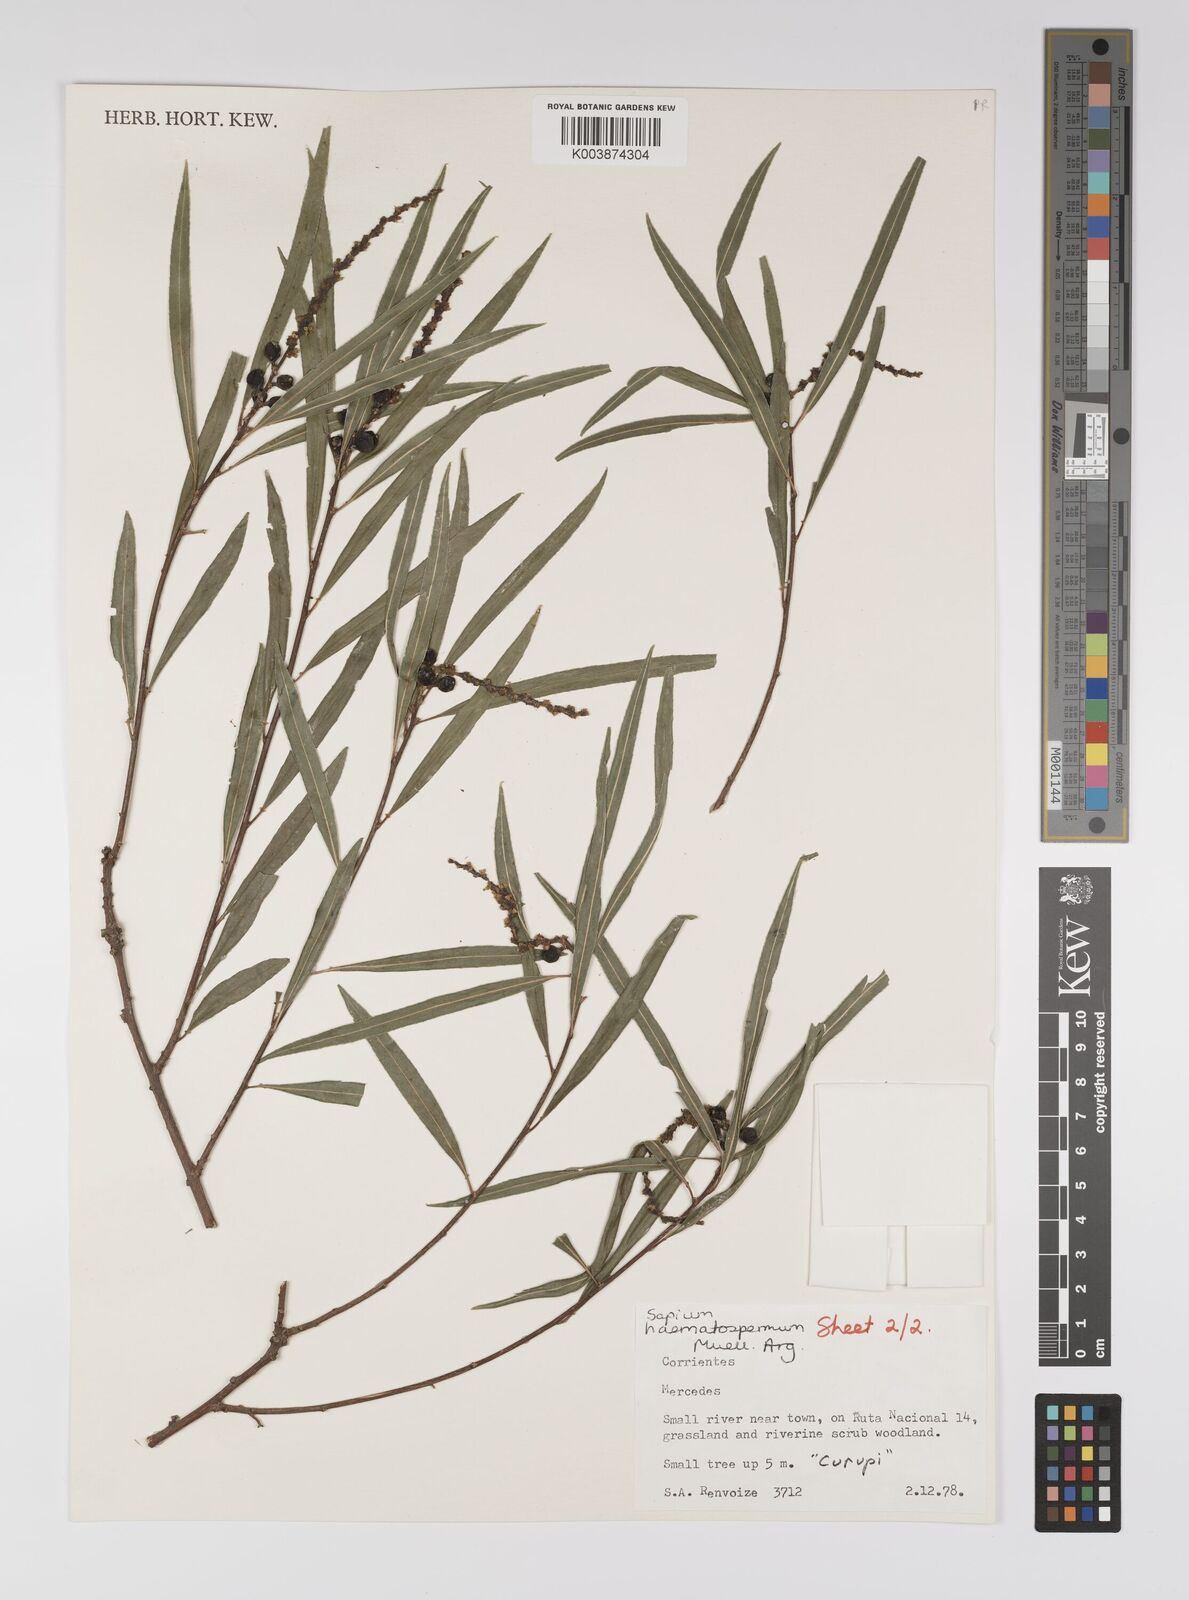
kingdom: Plantae
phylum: Tracheophyta
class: Magnoliopsida
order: Malpighiales
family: Euphorbiaceae
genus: Sapium
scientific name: Sapium haematospermum
